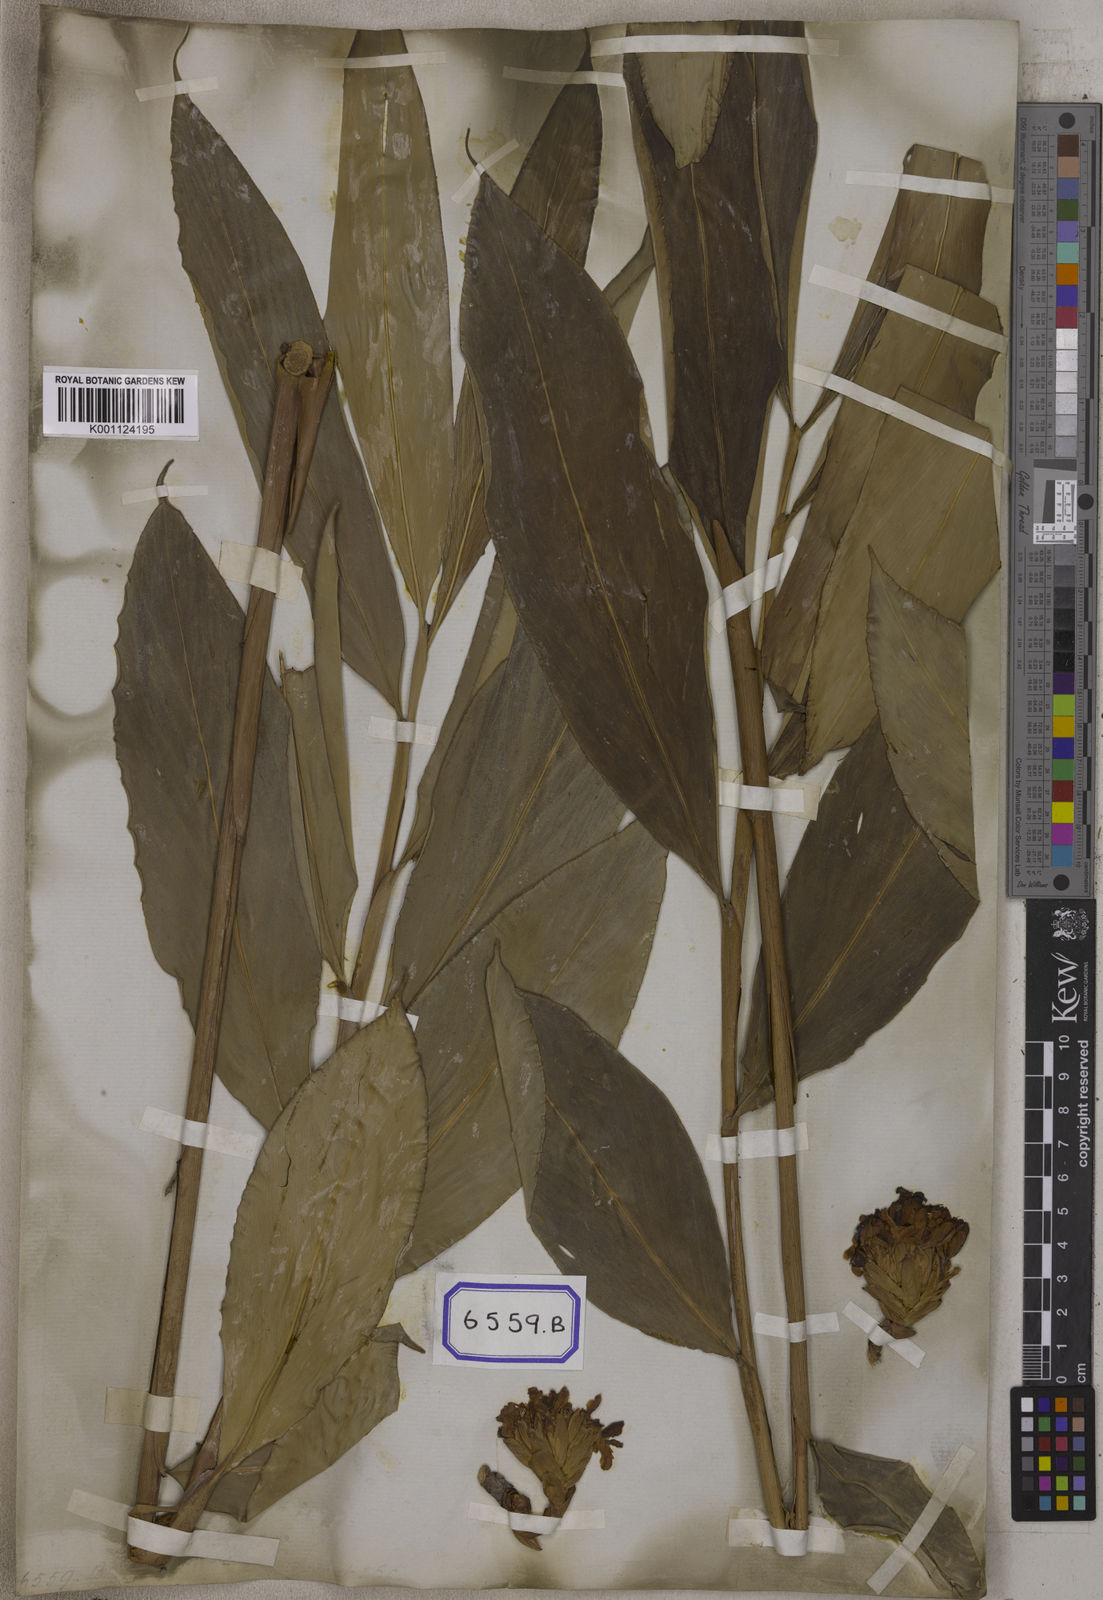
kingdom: Plantae
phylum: Tracheophyta
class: Liliopsida
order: Zingiberales
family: Zingiberaceae
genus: Wurfbainia
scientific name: Wurfbainia aromatica
